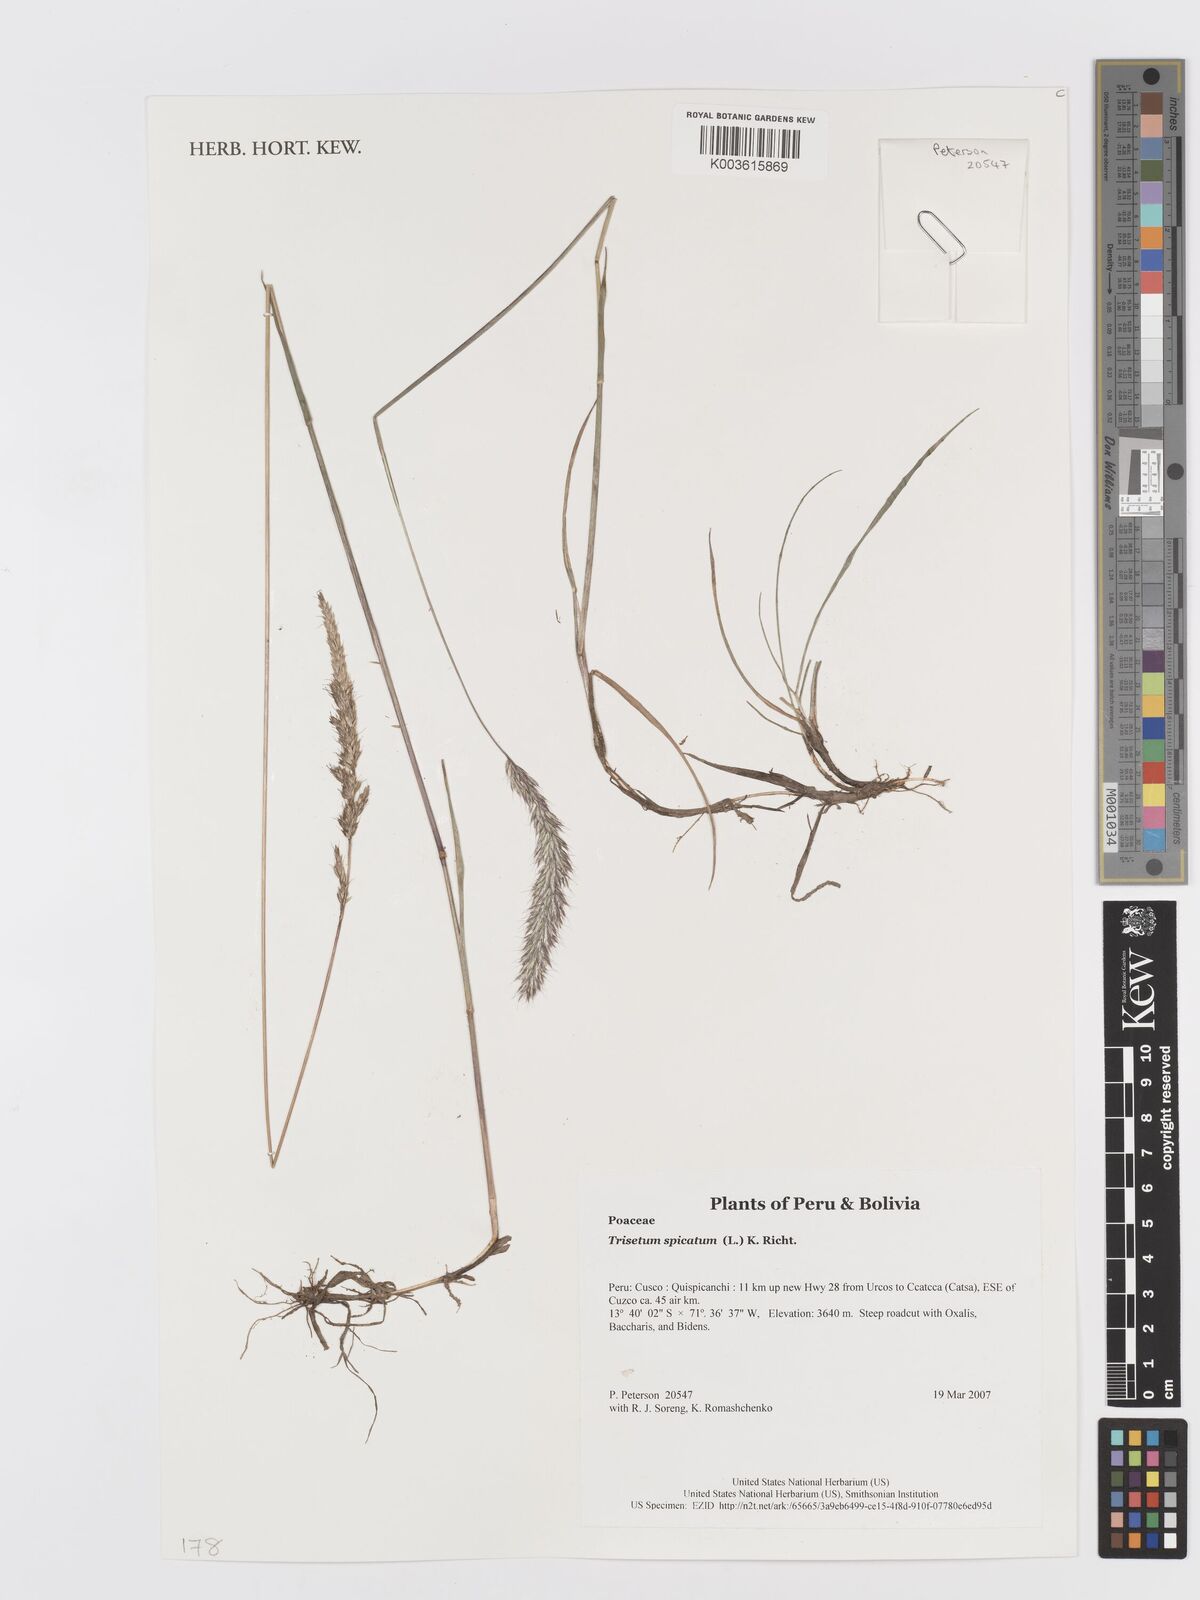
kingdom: Plantae
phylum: Tracheophyta
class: Liliopsida
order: Poales
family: Poaceae
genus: Koeleria
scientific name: Koeleria spicata
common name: Mountain trisetum
